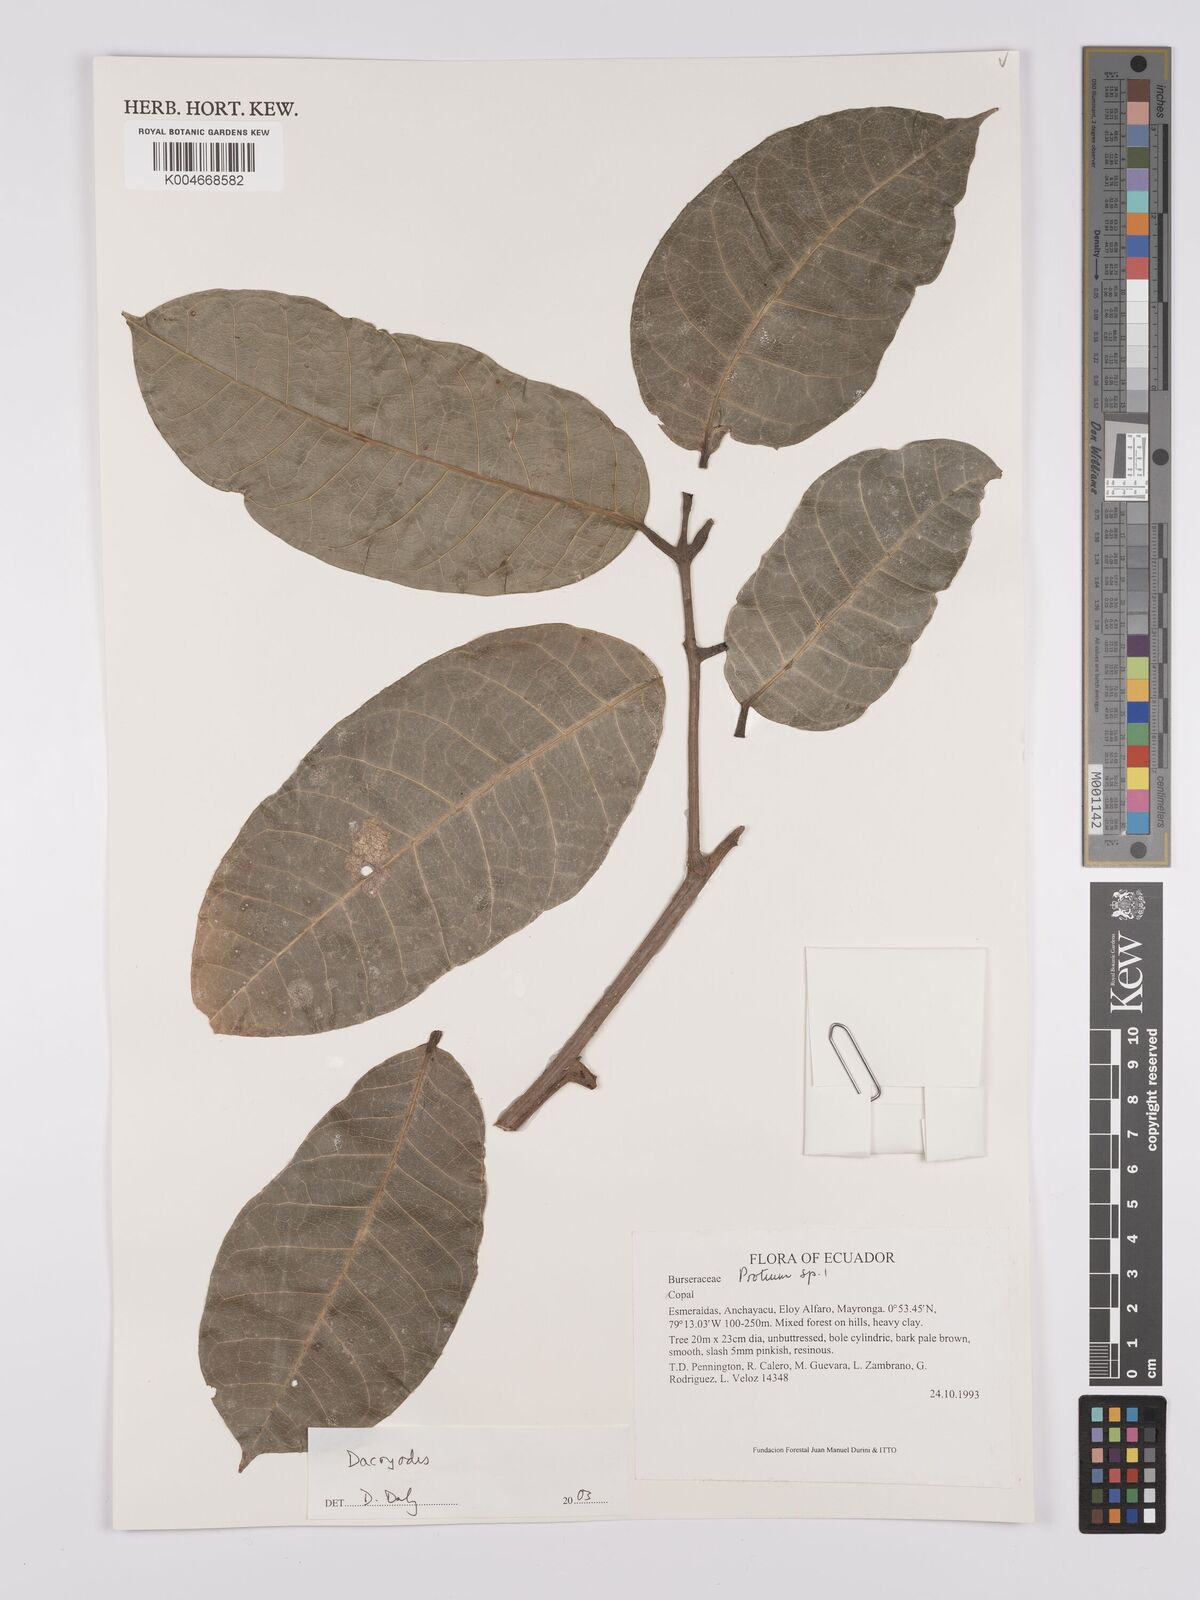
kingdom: Plantae
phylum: Tracheophyta
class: Magnoliopsida
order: Sapindales
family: Burseraceae
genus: Dacryodes
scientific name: Dacryodes
